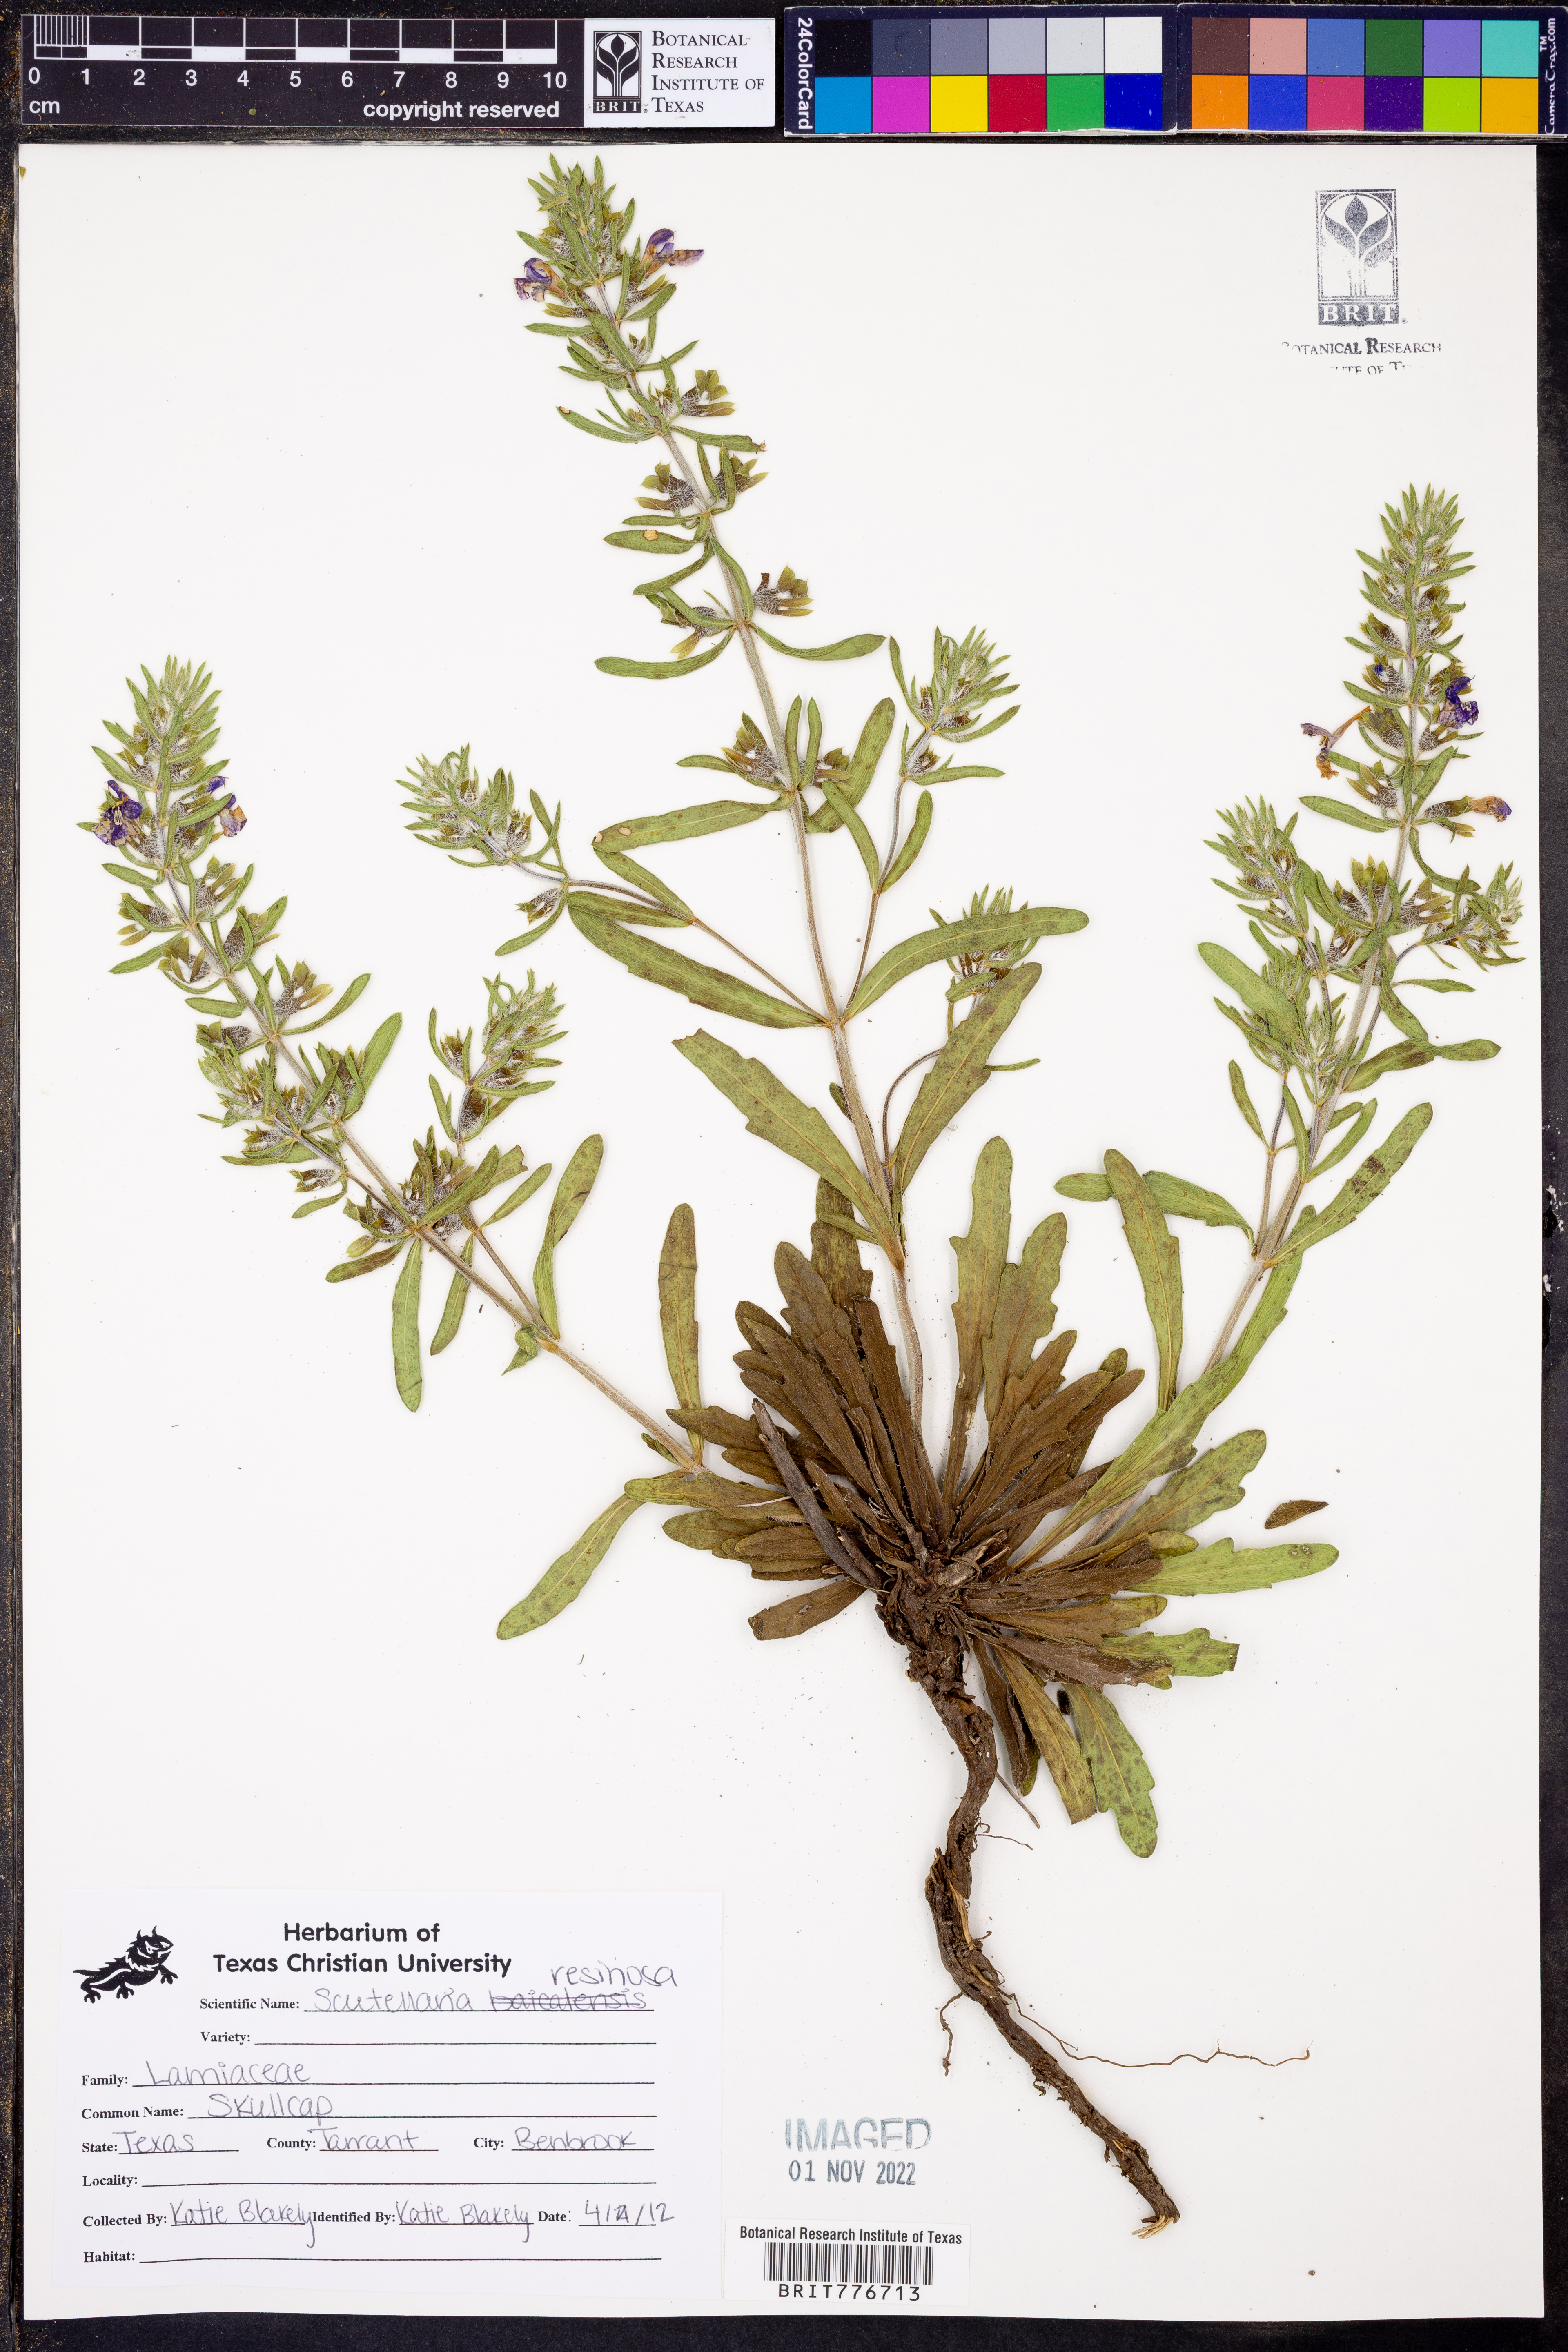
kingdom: Plantae
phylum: Tracheophyta
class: Magnoliopsida
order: Lamiales
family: Lamiaceae
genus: Scutellaria
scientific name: Scutellaria resinosa
